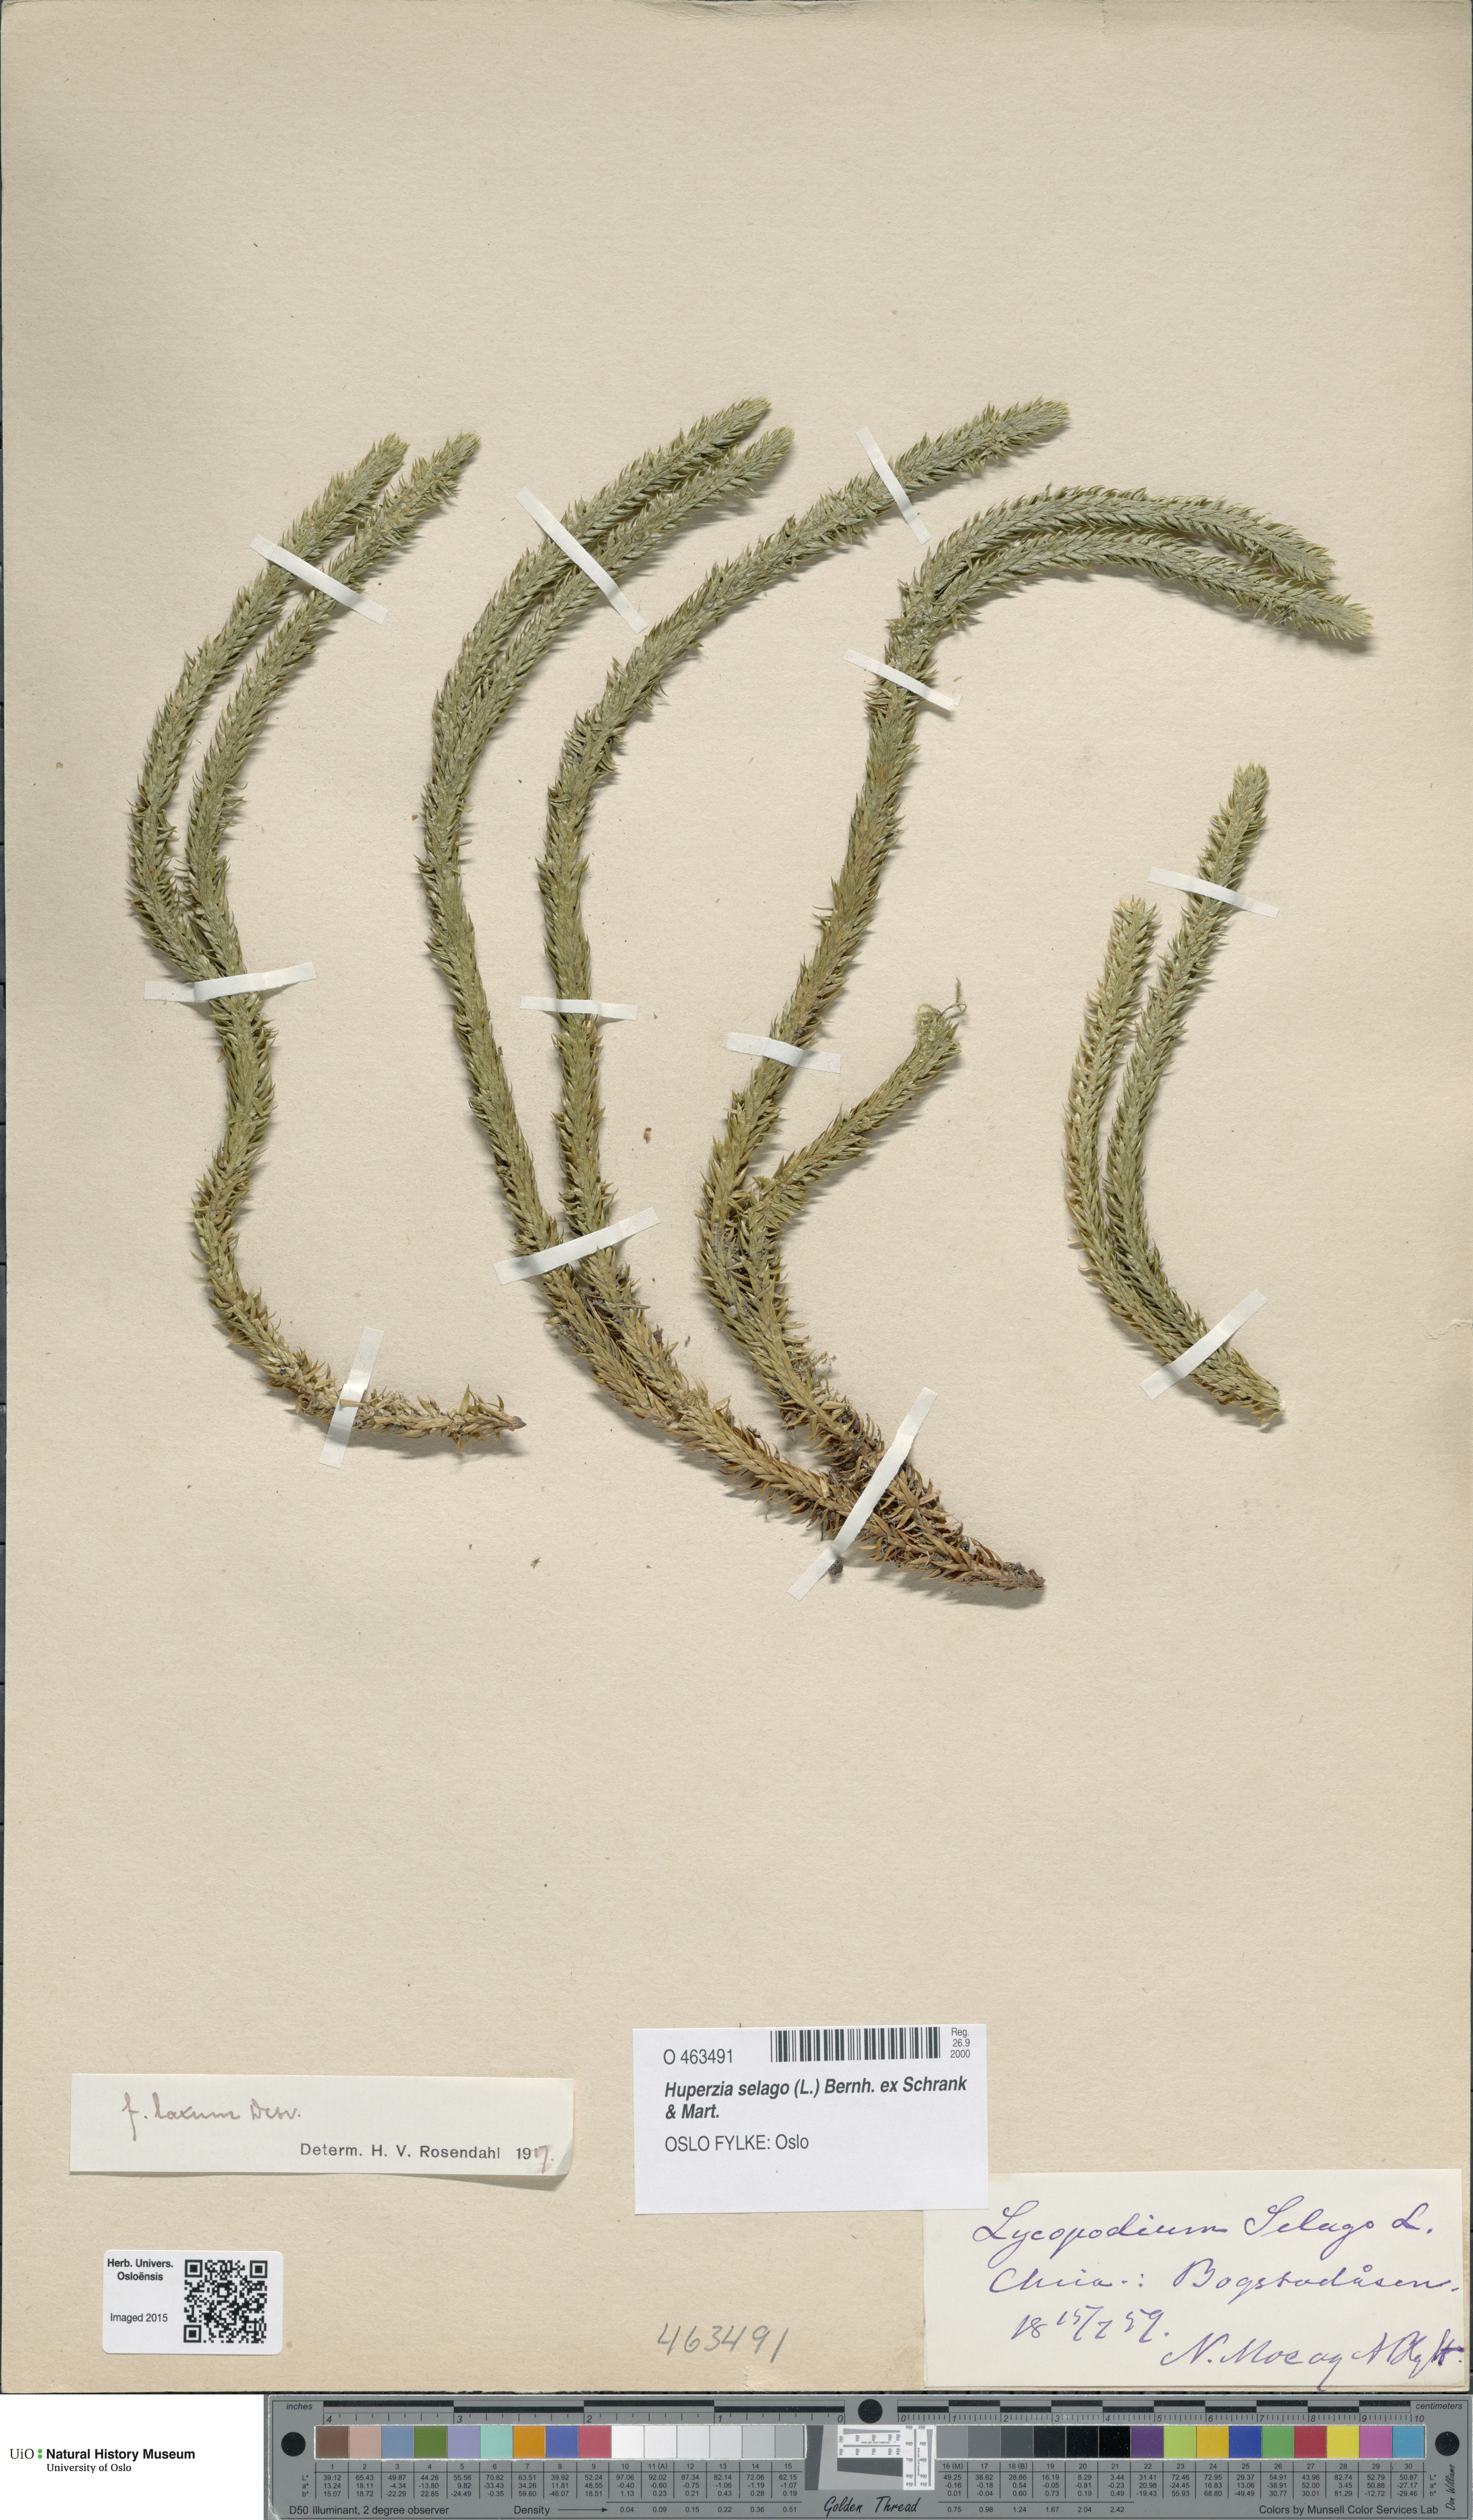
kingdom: Plantae
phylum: Tracheophyta
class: Lycopodiopsida
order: Lycopodiales
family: Lycopodiaceae
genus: Huperzia
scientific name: Huperzia selago
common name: Northern firmoss
